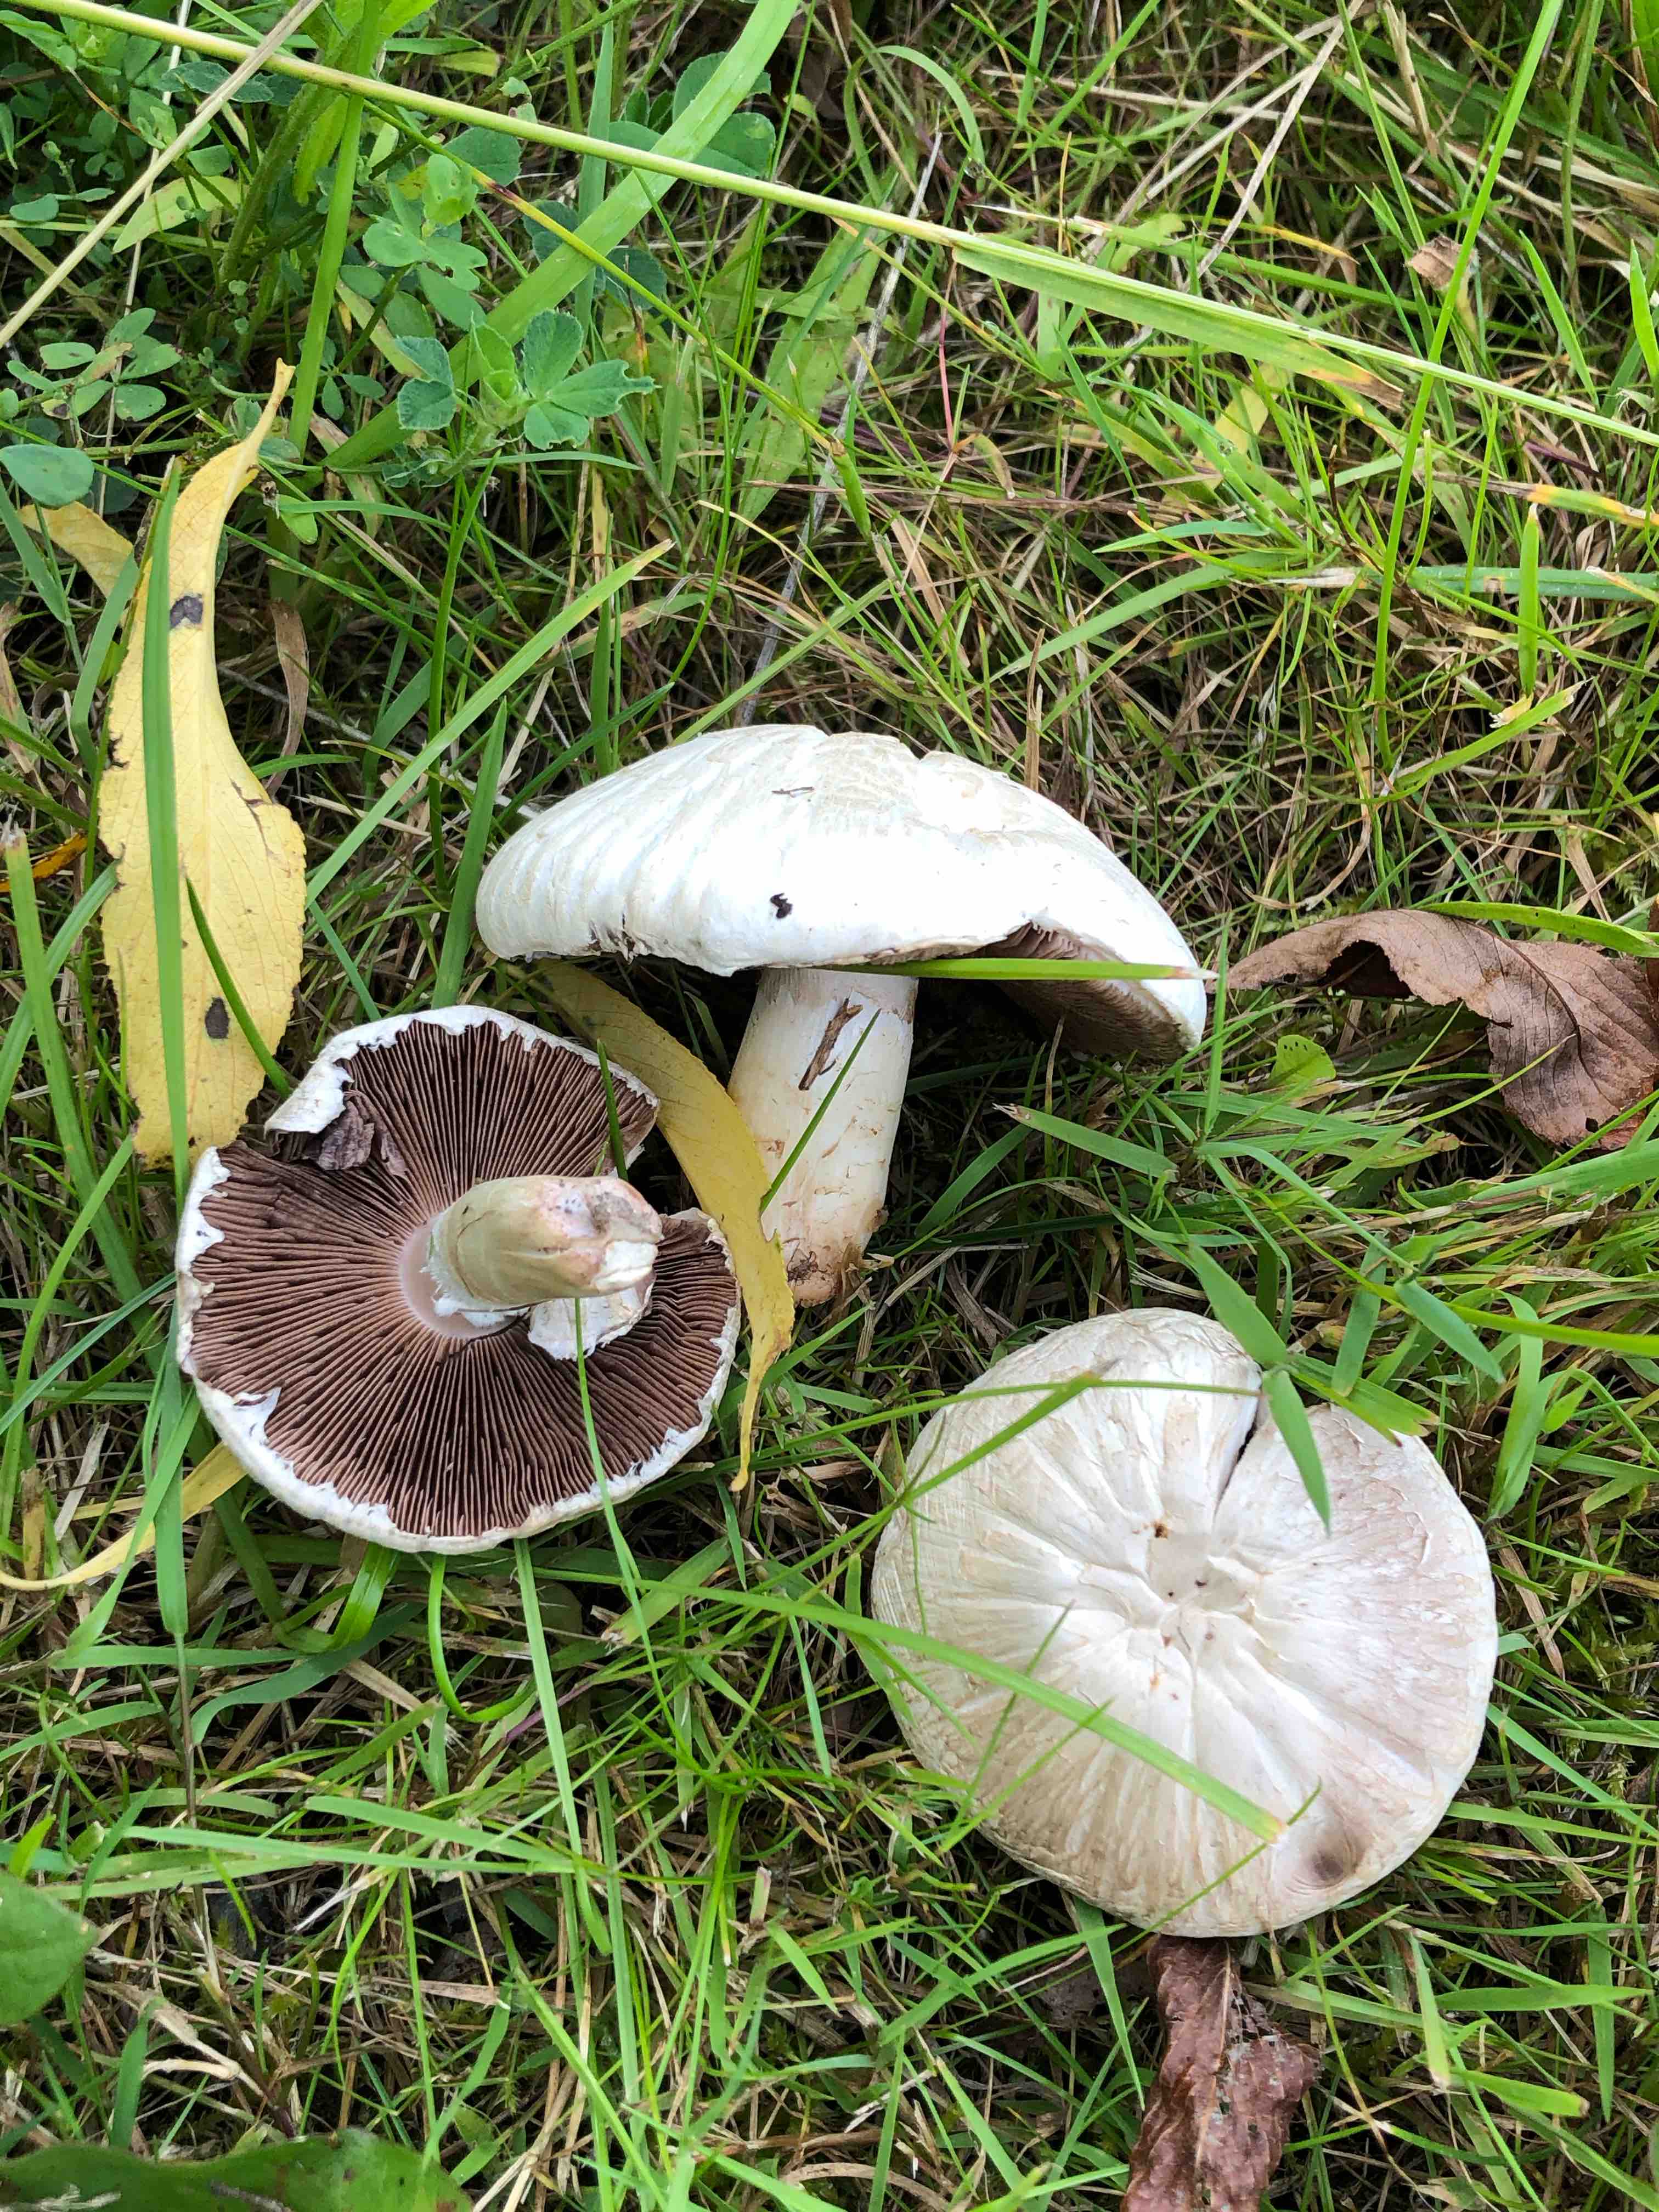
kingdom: Fungi
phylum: Basidiomycota
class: Agaricomycetes
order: Agaricales
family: Agaricaceae
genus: Agaricus
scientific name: Agaricus campestris
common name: mark-champignon
